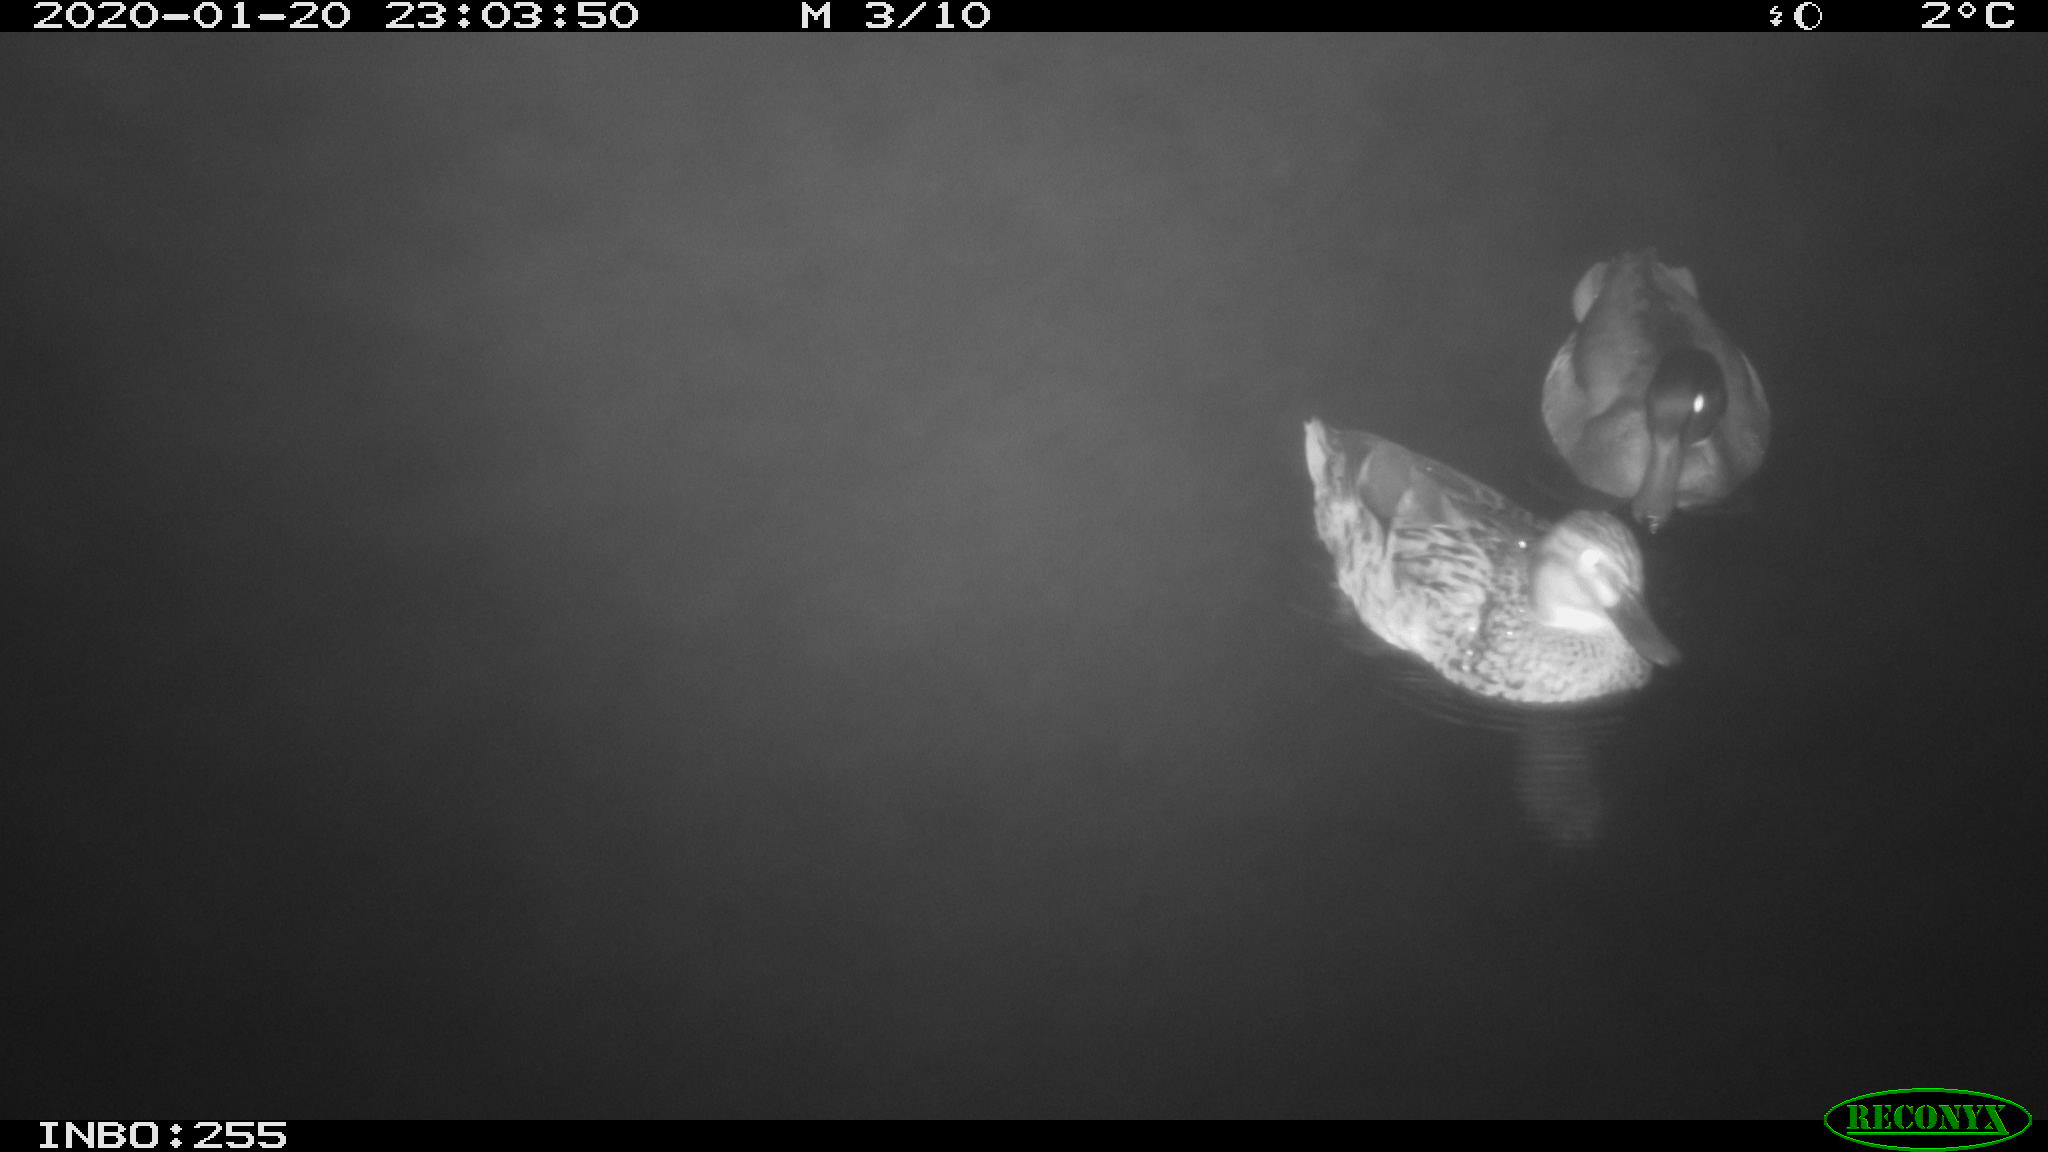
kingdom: Animalia
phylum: Chordata
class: Aves
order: Anseriformes
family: Anatidae
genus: Anas
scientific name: Anas platyrhynchos
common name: Mallard
